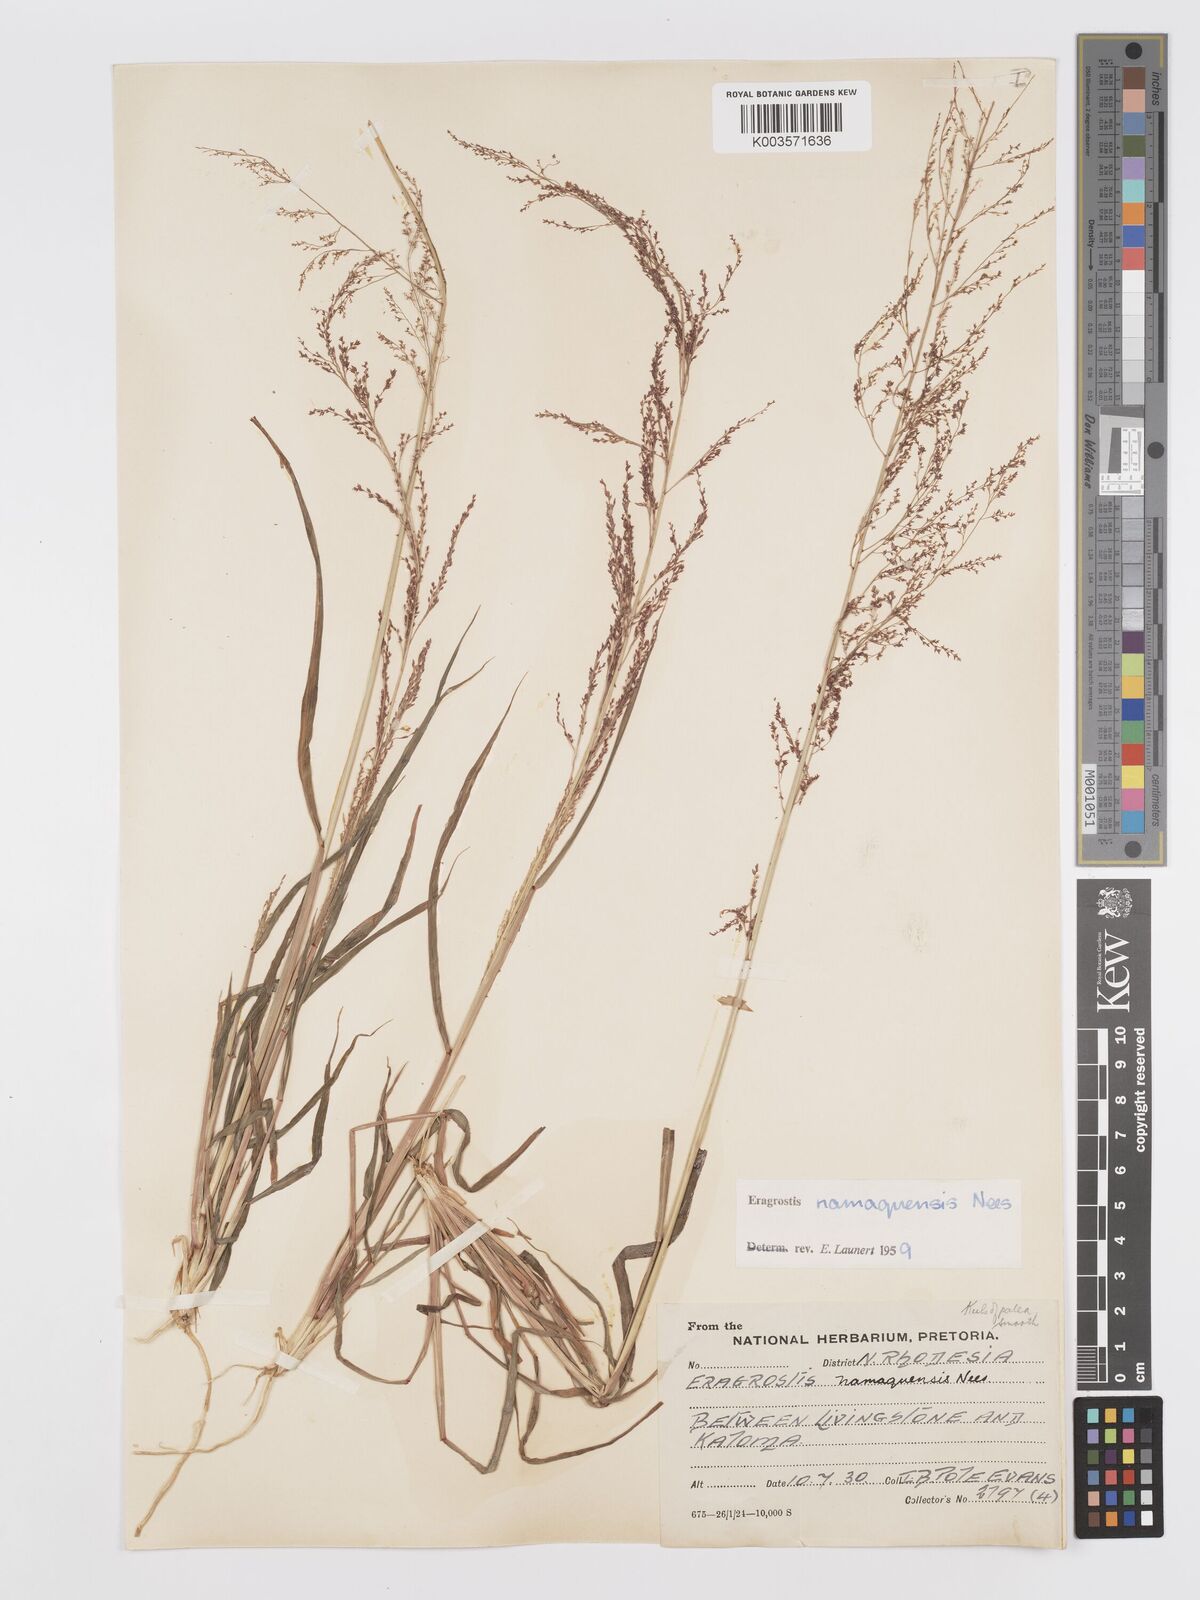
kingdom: Plantae
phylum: Tracheophyta
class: Liliopsida
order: Poales
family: Poaceae
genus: Eragrostis
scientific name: Eragrostis japonica
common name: Pond lovegrass
